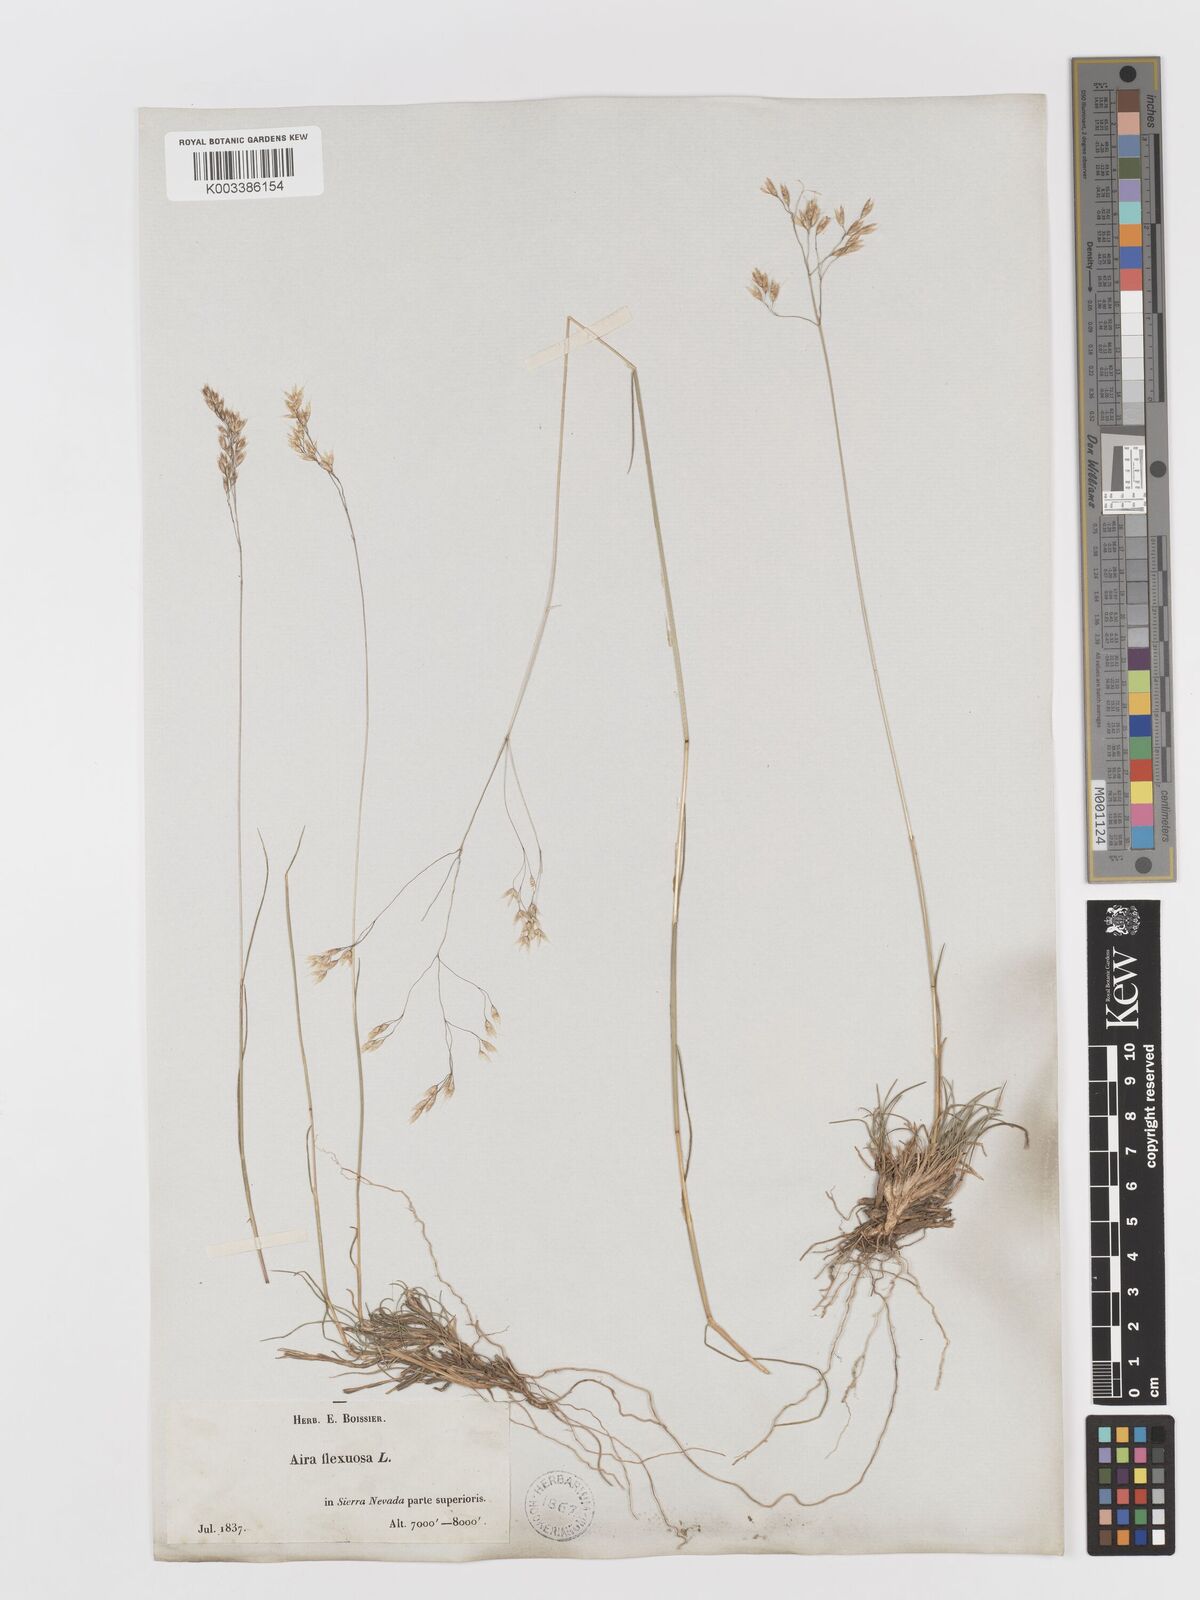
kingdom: Plantae
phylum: Tracheophyta
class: Liliopsida
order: Poales
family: Poaceae
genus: Avenella
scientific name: Avenella flexuosa
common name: Wavy hairgrass
